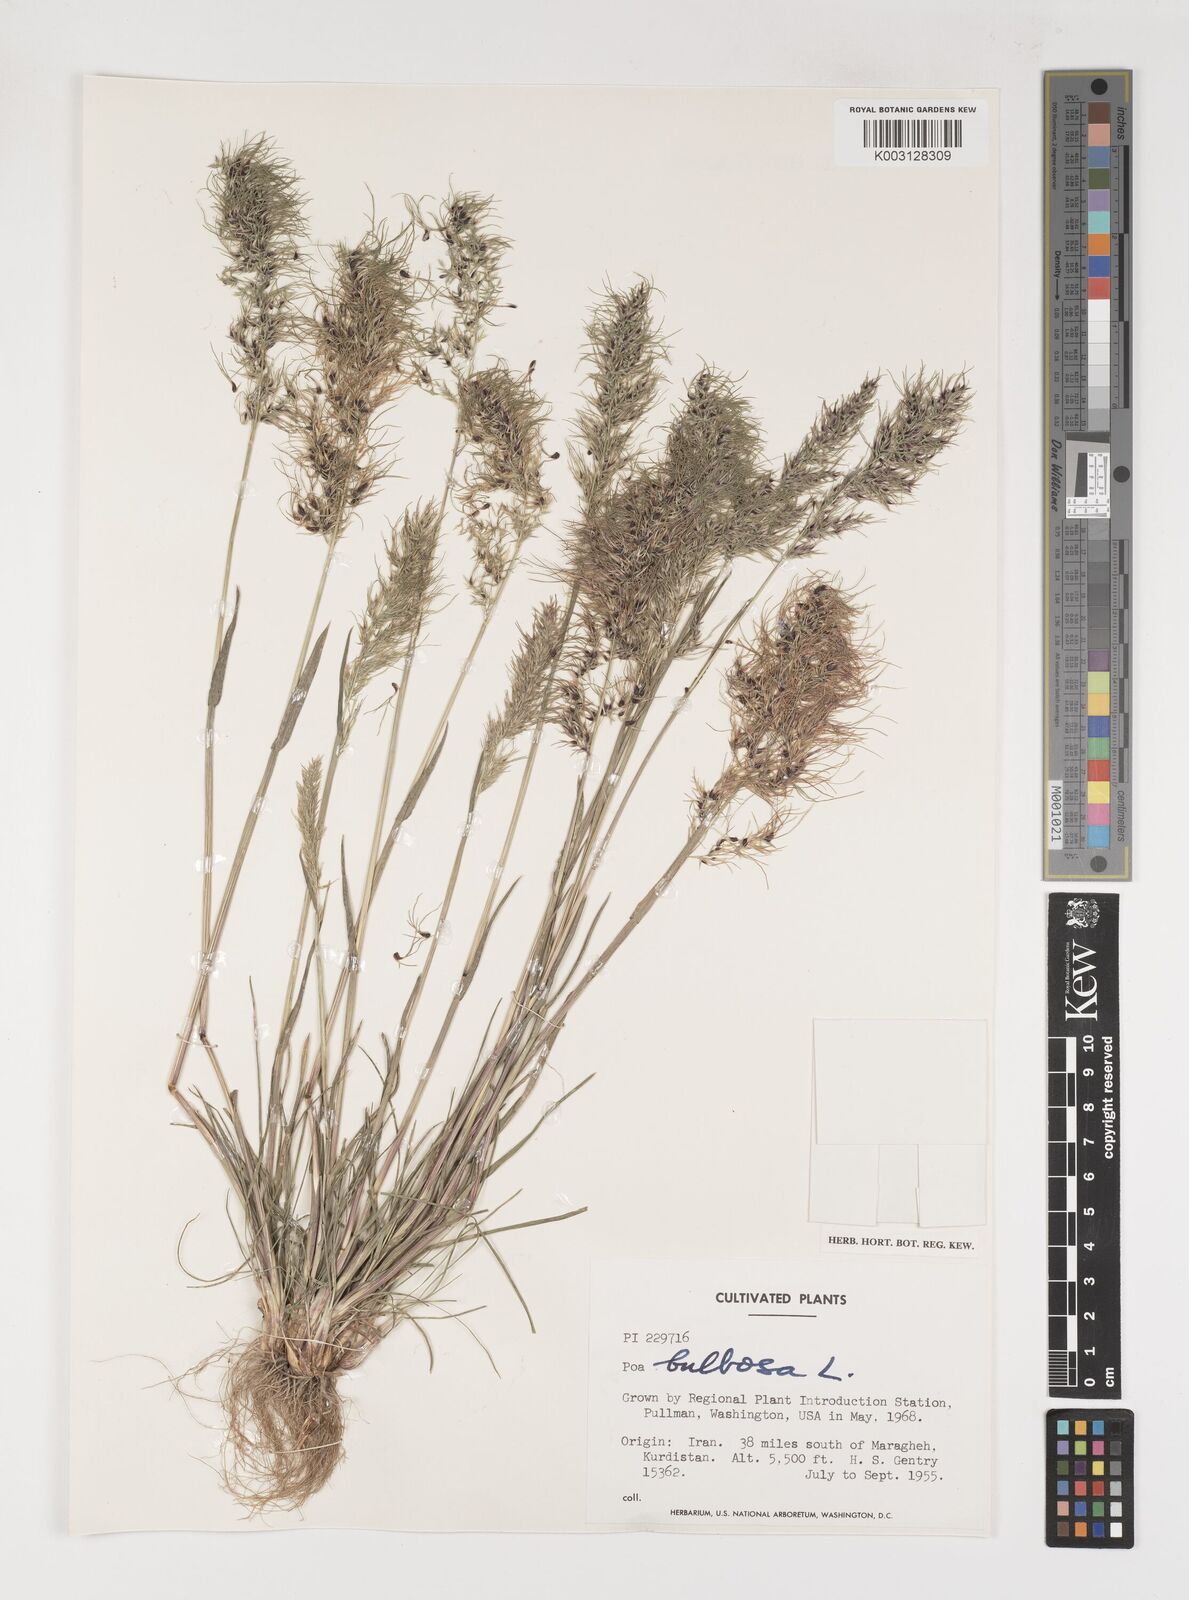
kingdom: Plantae
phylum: Tracheophyta
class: Liliopsida
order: Poales
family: Poaceae
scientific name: Poaceae
